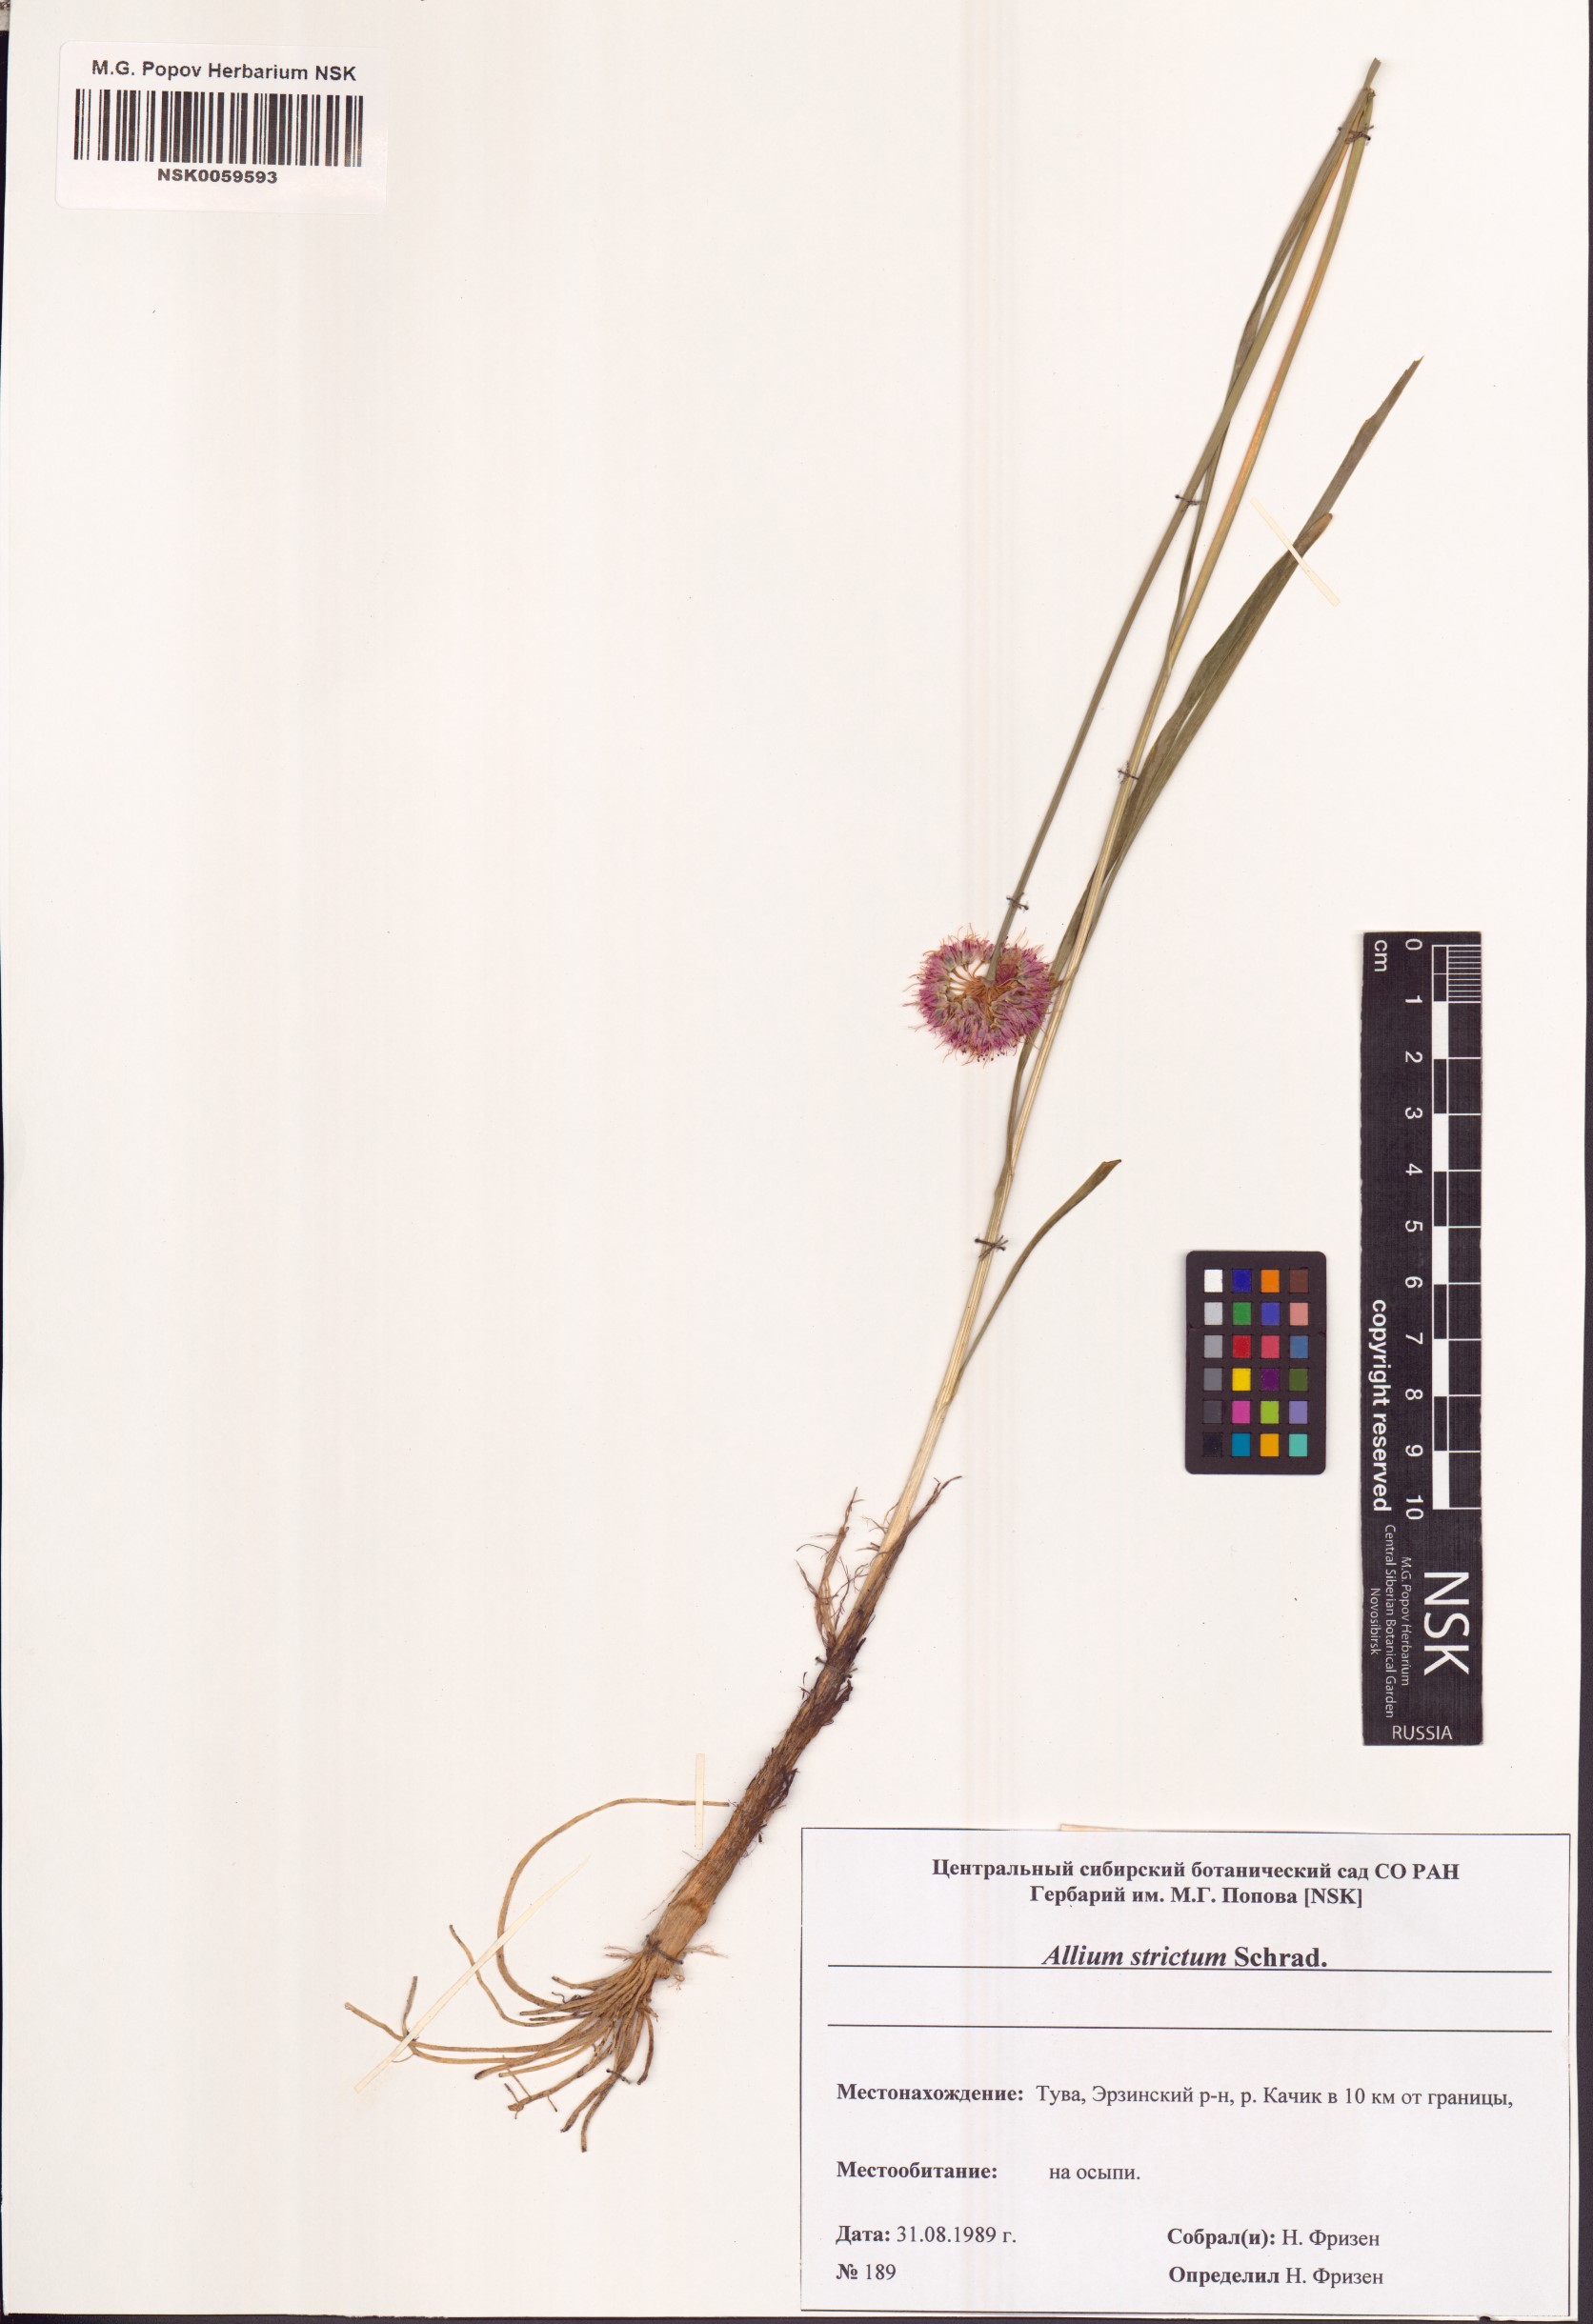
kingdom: Plantae
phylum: Tracheophyta
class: Liliopsida
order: Asparagales
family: Amaryllidaceae
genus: Allium
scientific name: Allium strictum
